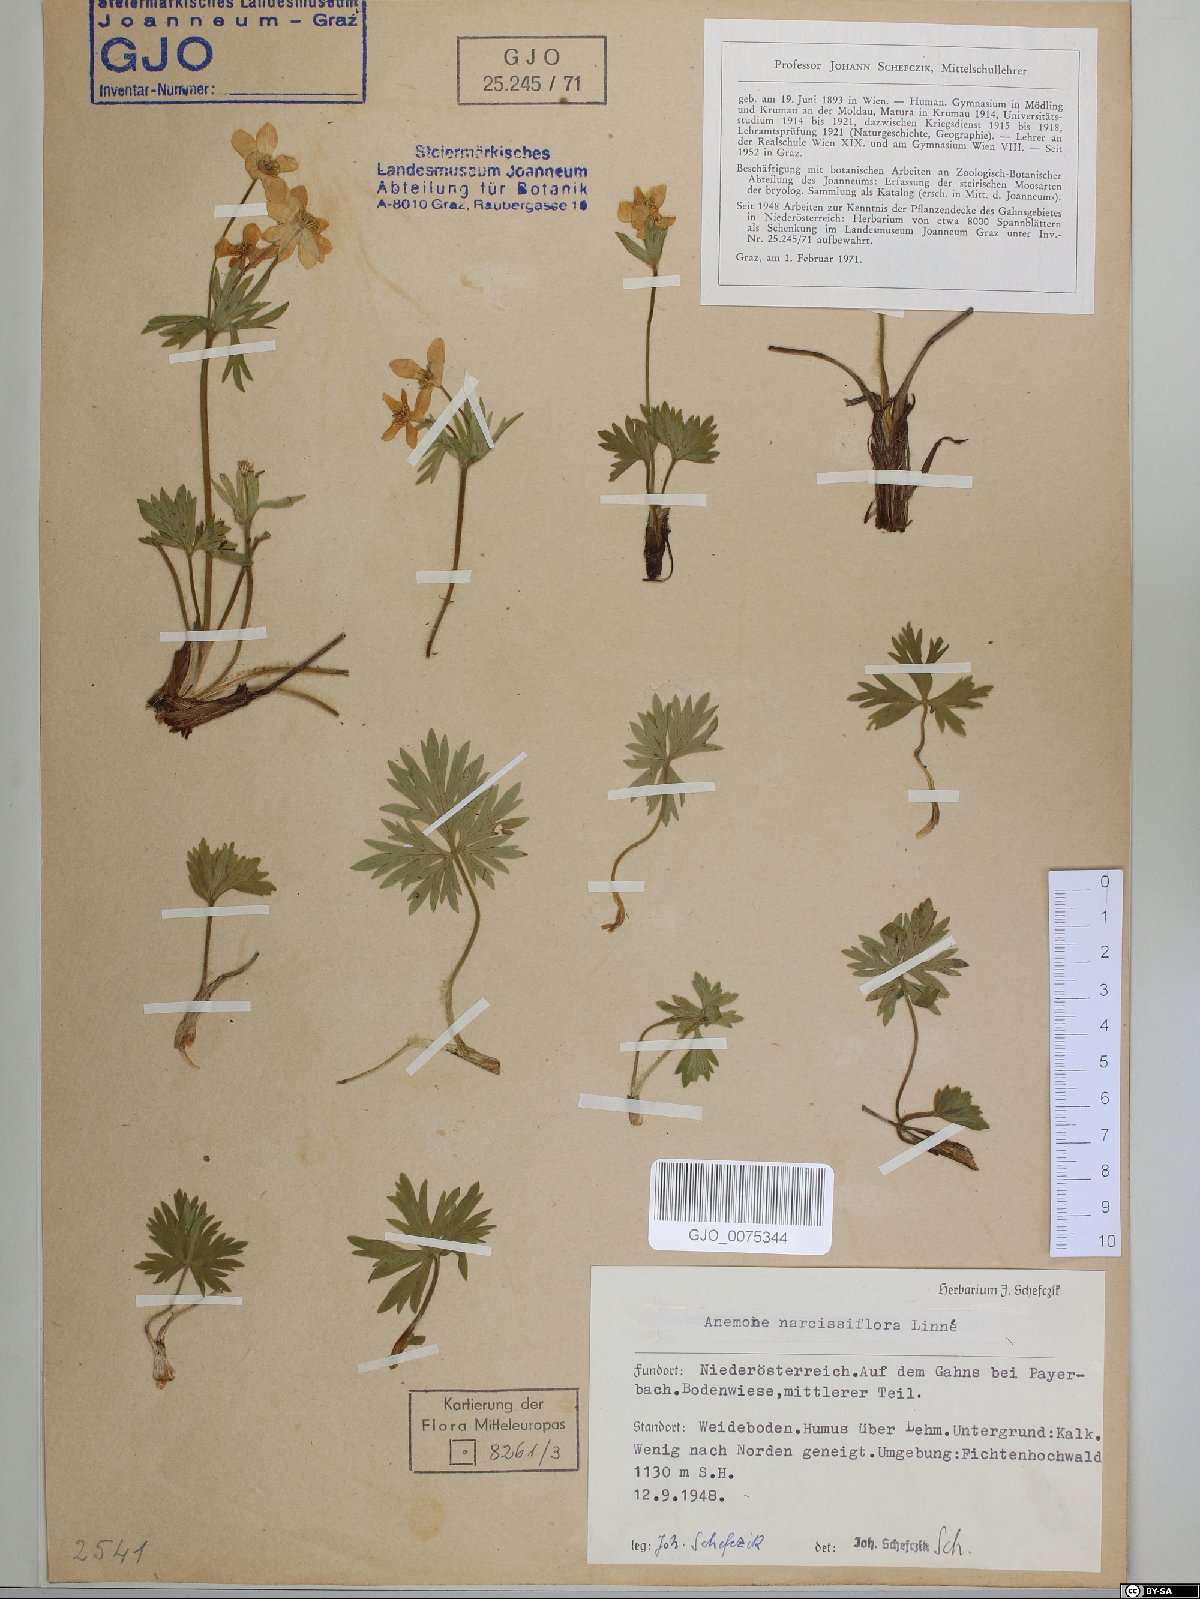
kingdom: Plantae
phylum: Tracheophyta
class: Magnoliopsida
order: Ranunculales
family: Ranunculaceae
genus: Anemonastrum
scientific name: Anemonastrum narcissiflorum
